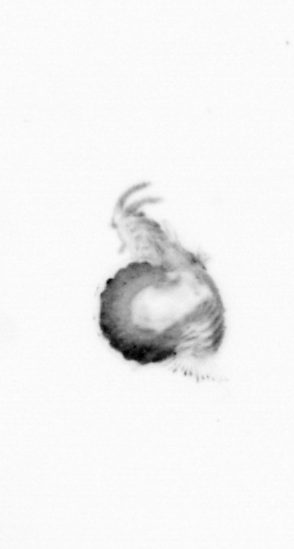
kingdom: Animalia
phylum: Annelida
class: Polychaeta
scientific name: Polychaeta
